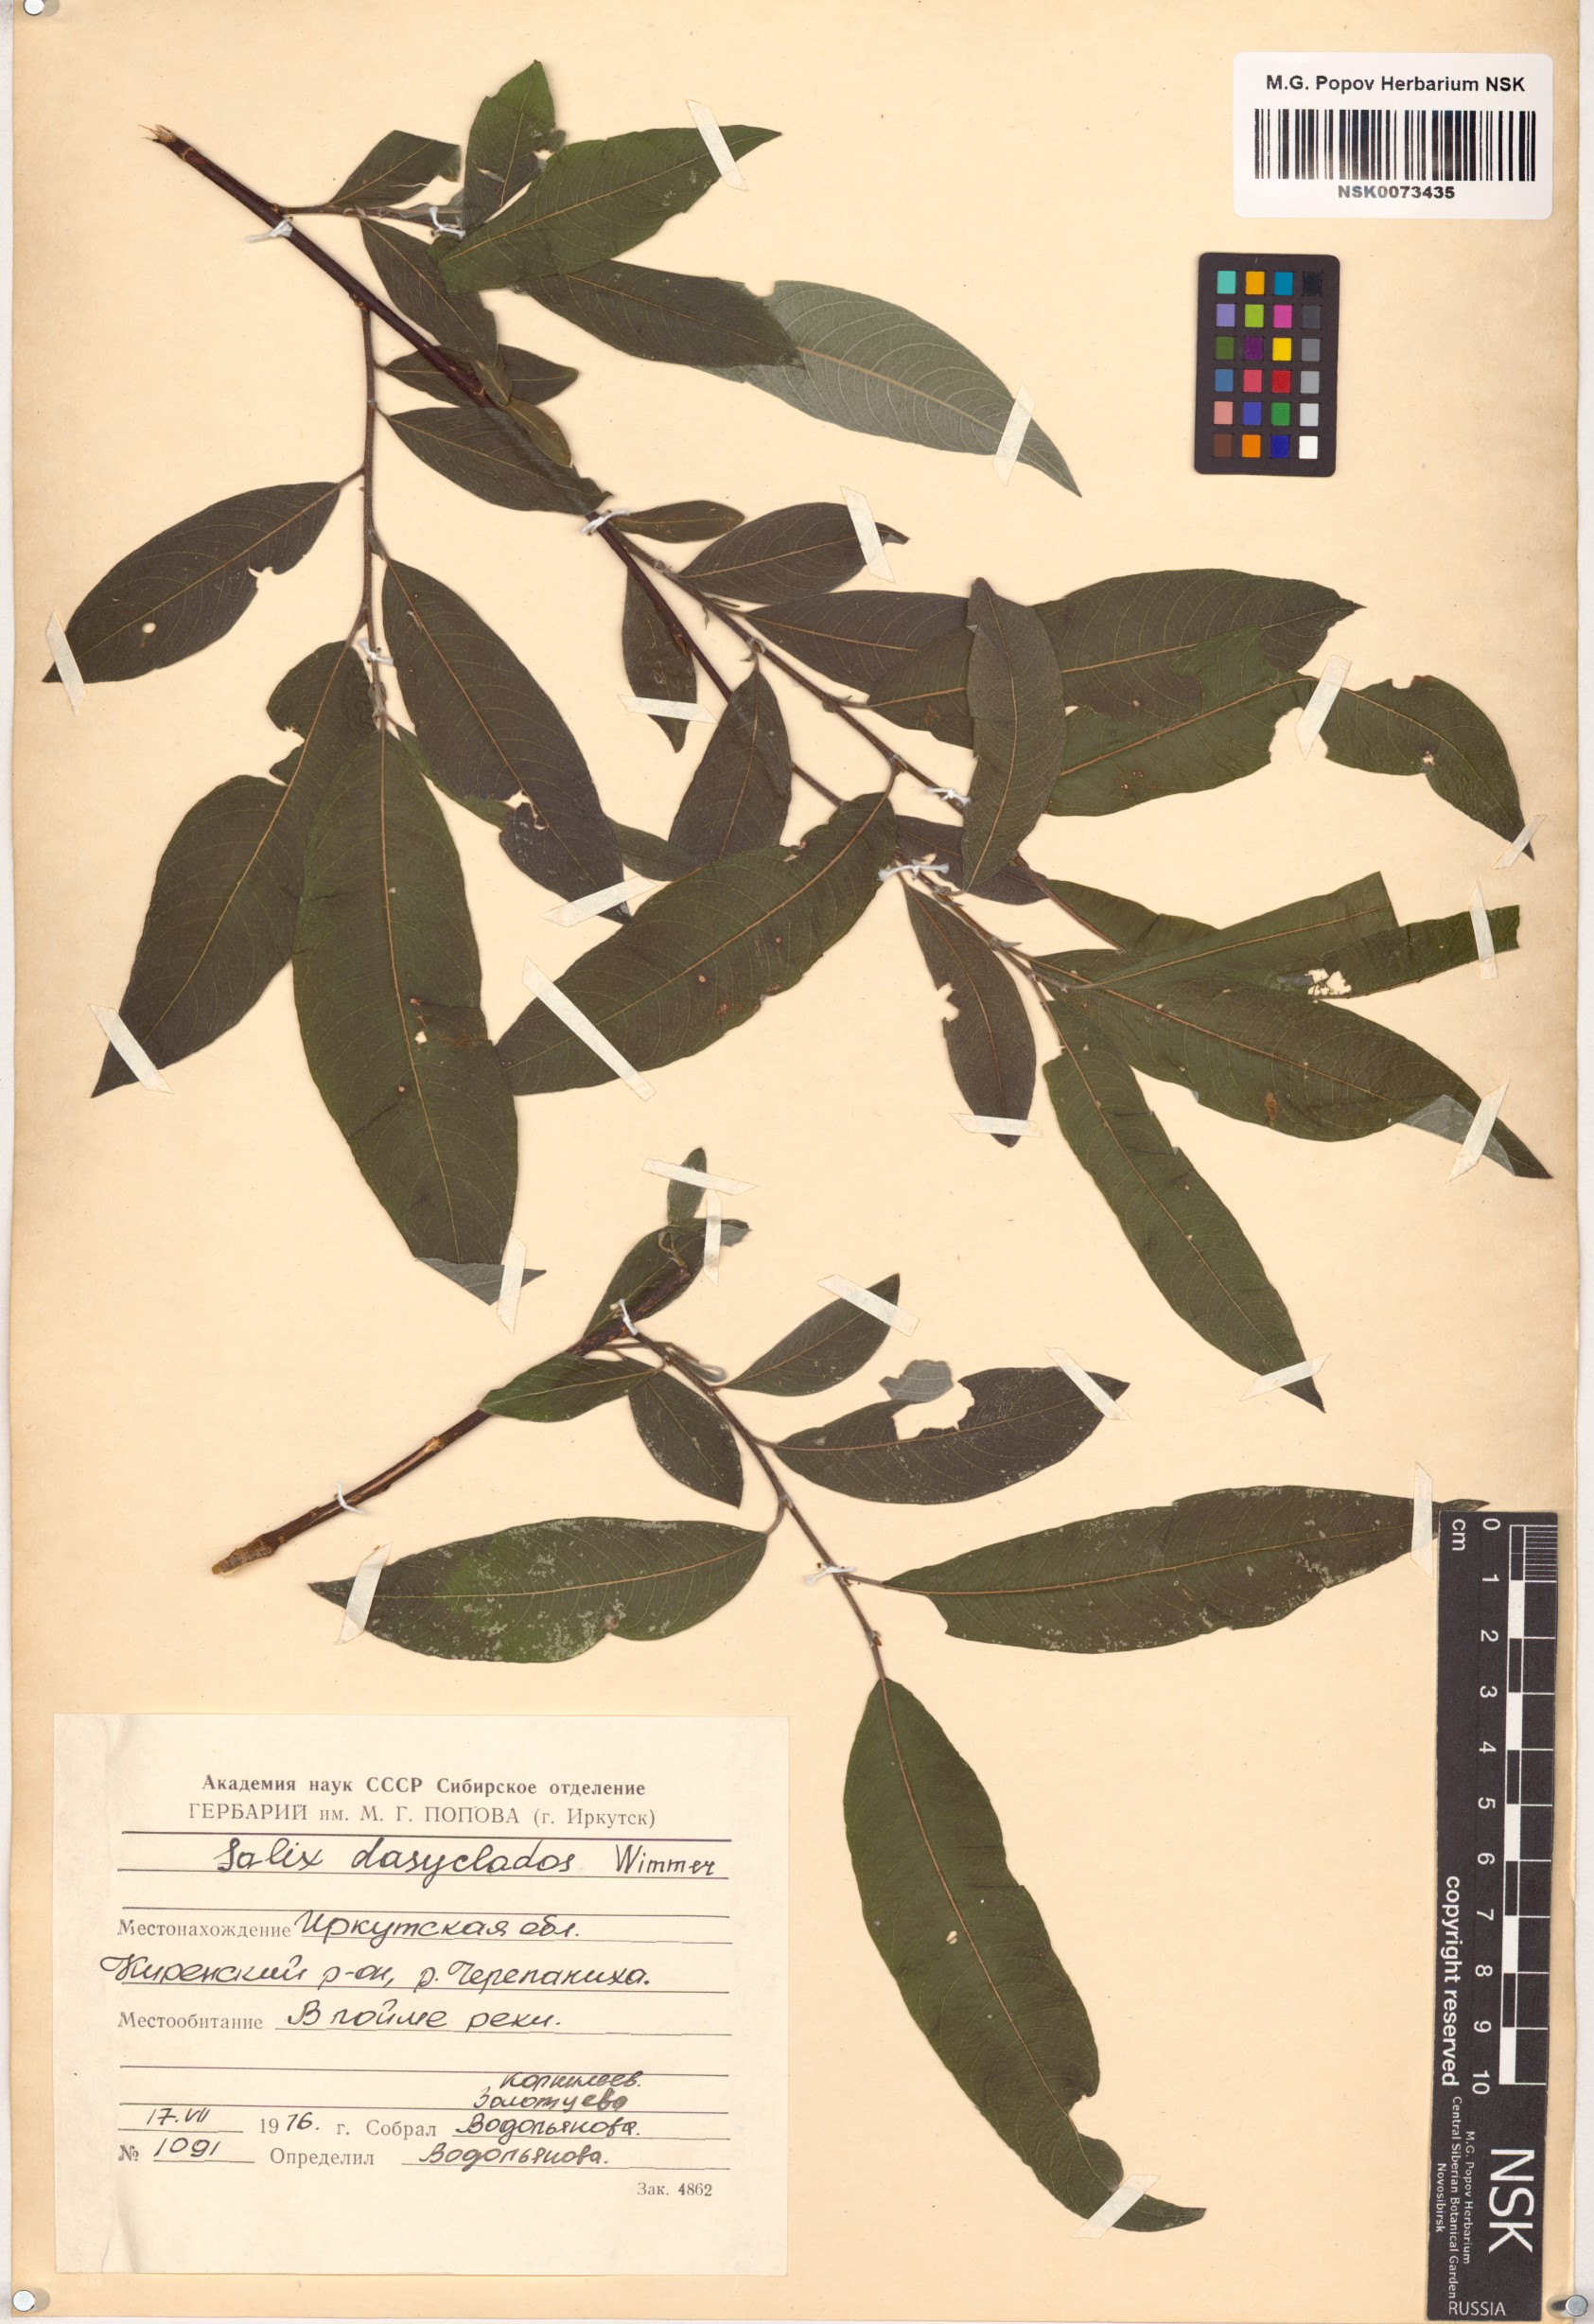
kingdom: Plantae
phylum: Tracheophyta
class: Magnoliopsida
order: Malpighiales
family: Salicaceae
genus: Salix
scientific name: Salix gmelinii
